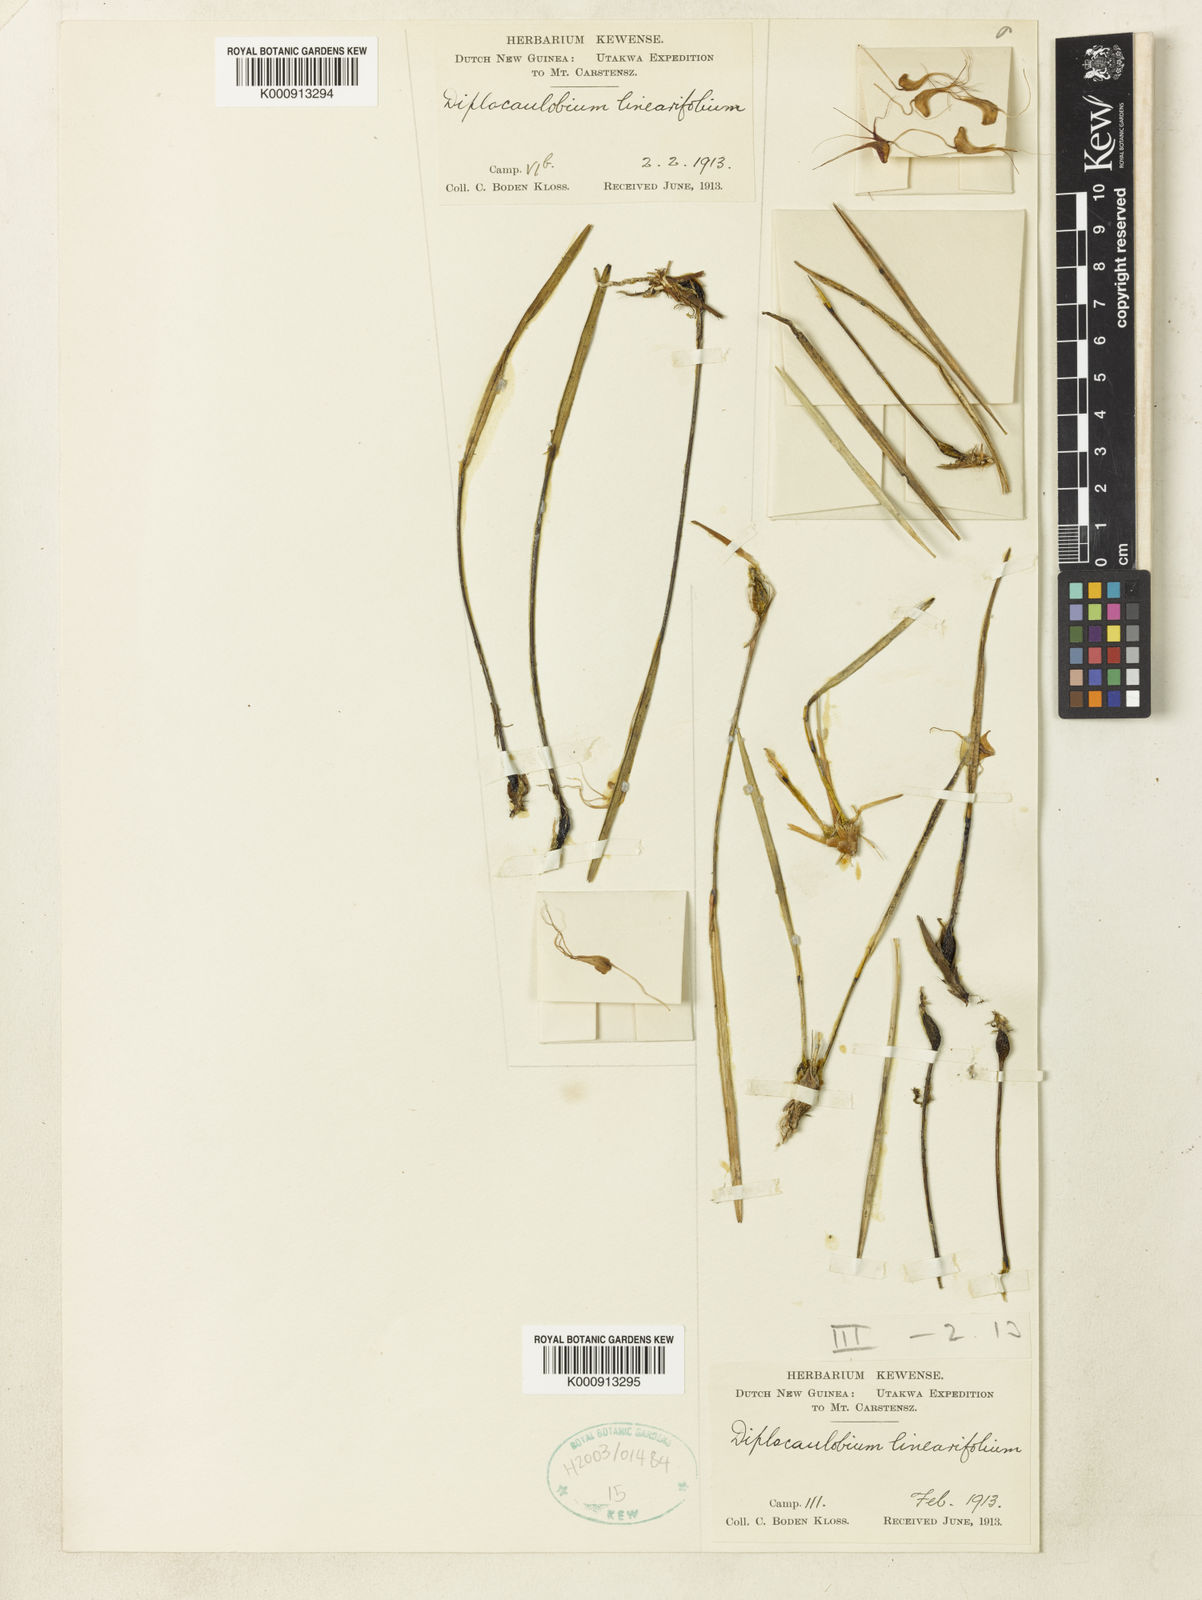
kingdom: Plantae
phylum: Tracheophyta
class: Liliopsida
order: Asparagales
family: Orchidaceae
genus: Dendrobium
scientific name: Dendrobium scotiiforme
